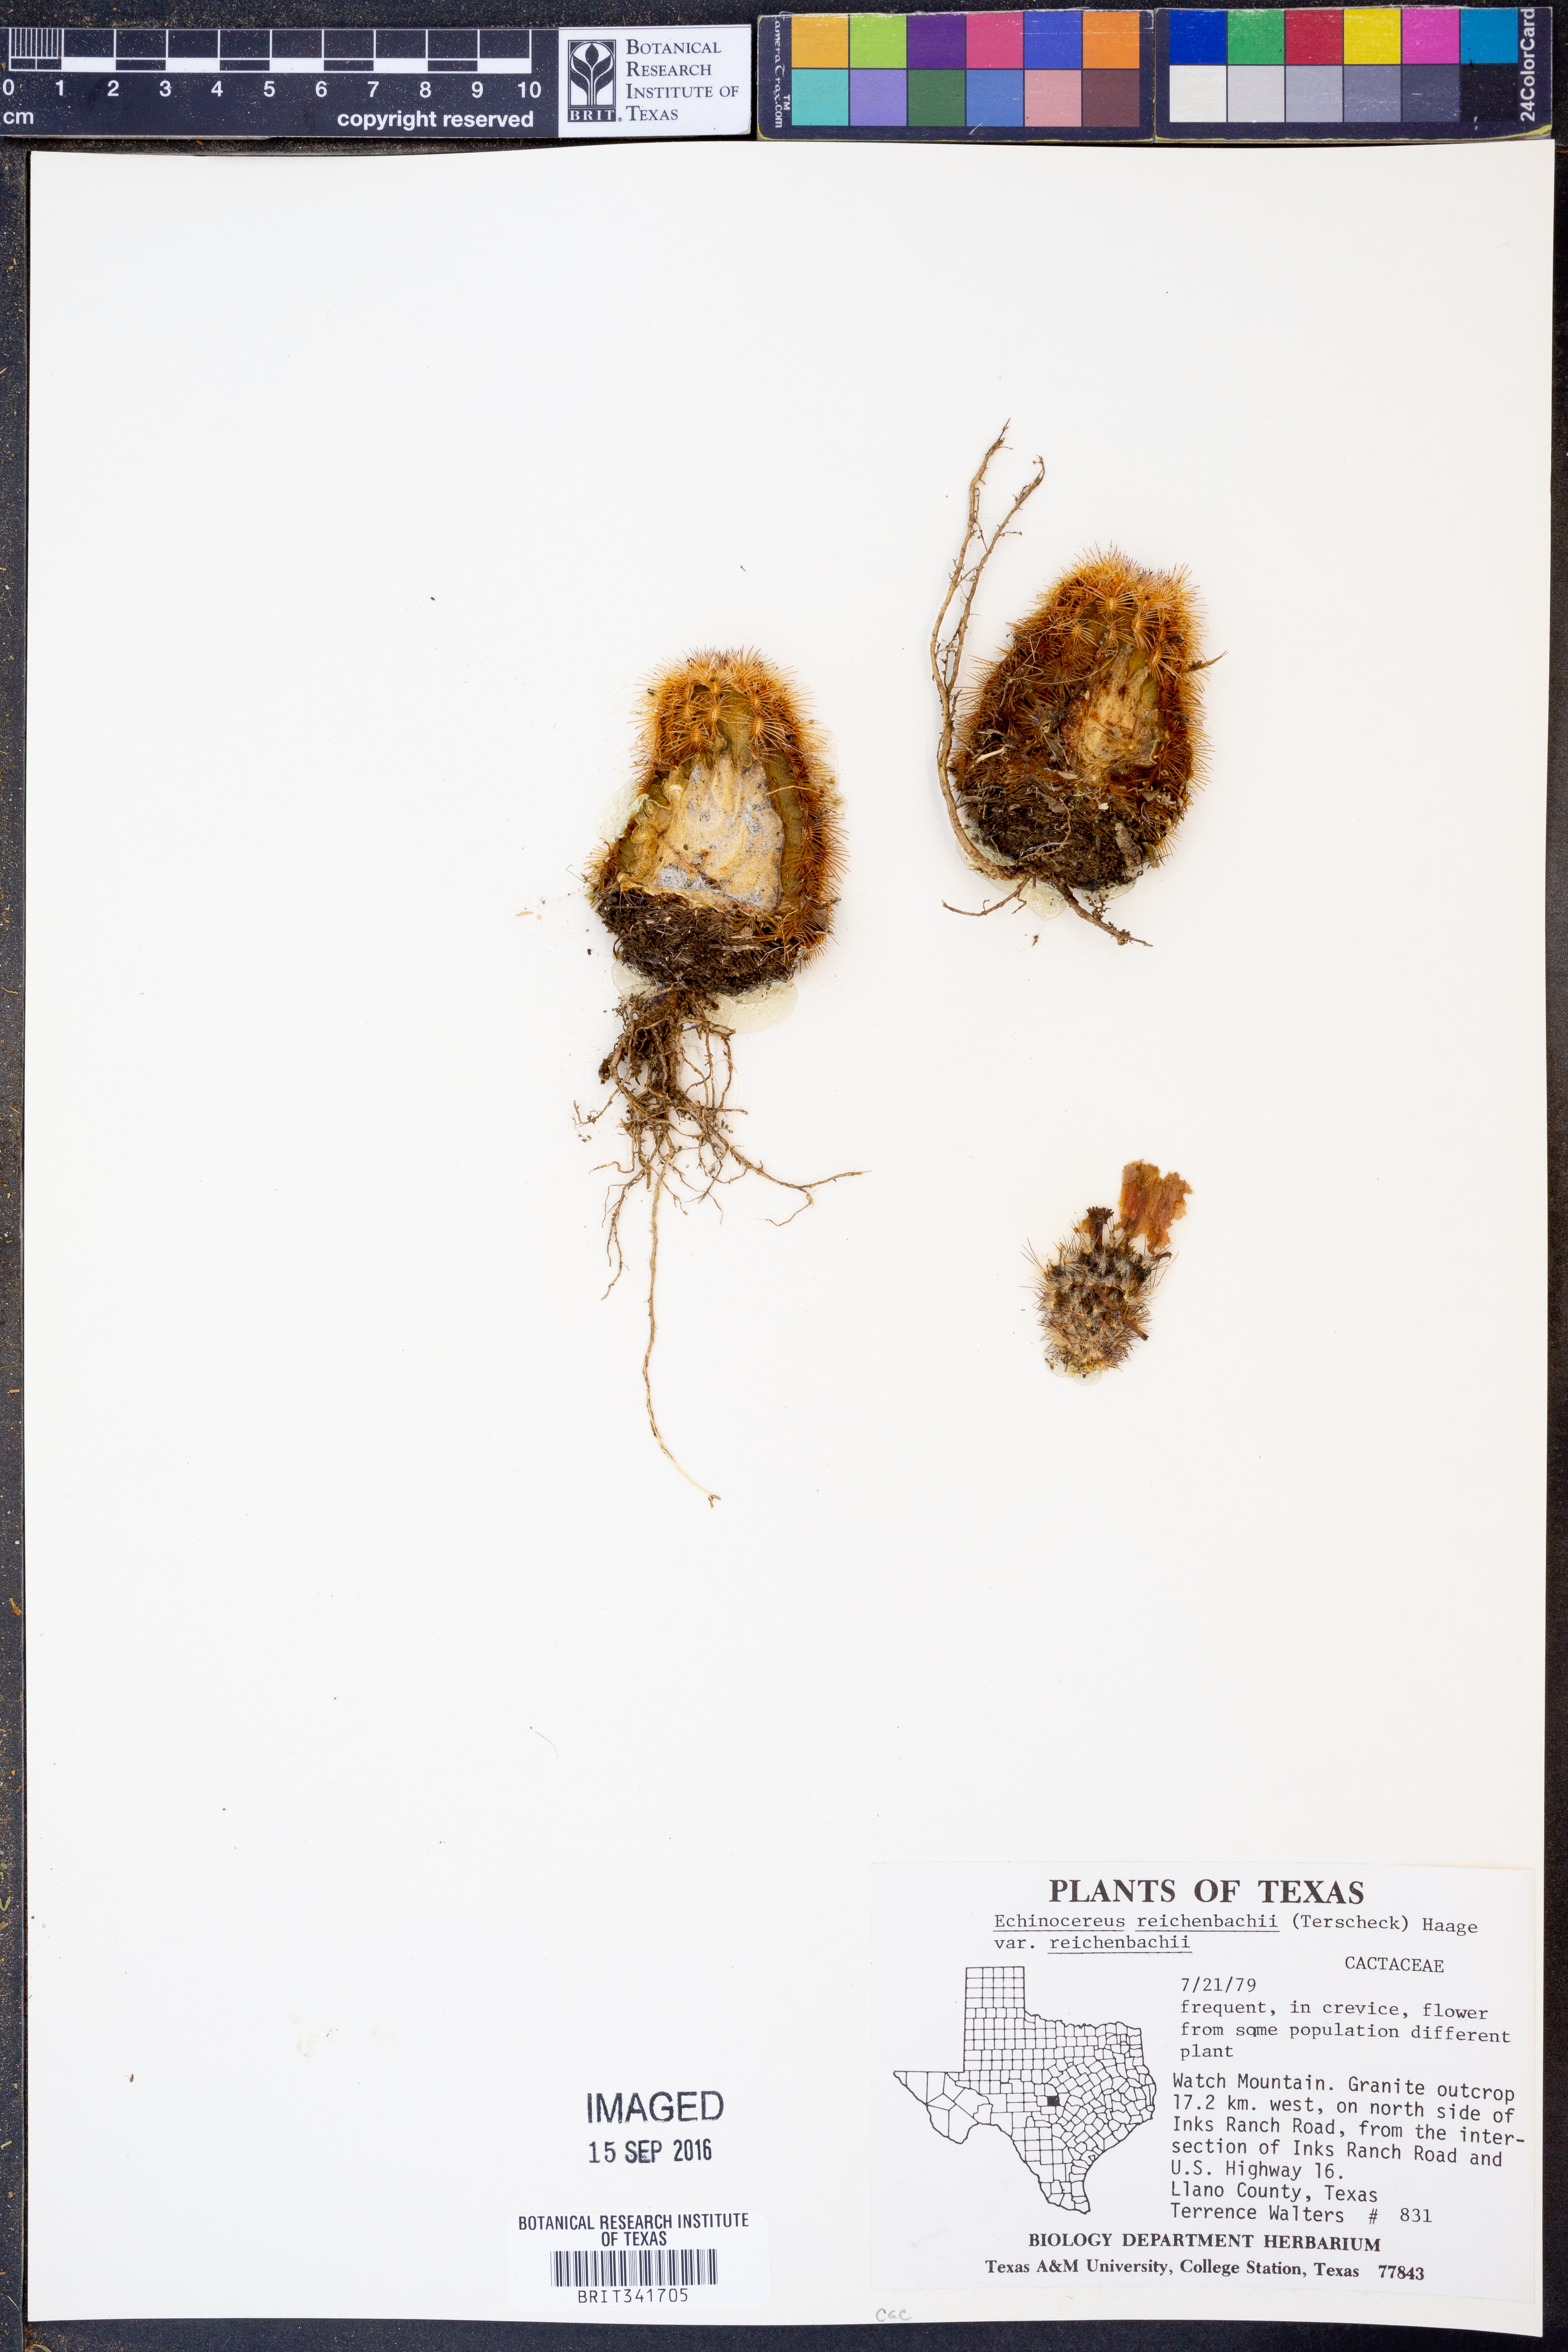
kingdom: Plantae
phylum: Tracheophyta
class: Magnoliopsida
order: Caryophyllales
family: Cactaceae
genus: Echinocereus
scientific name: Echinocereus reichenbachii
